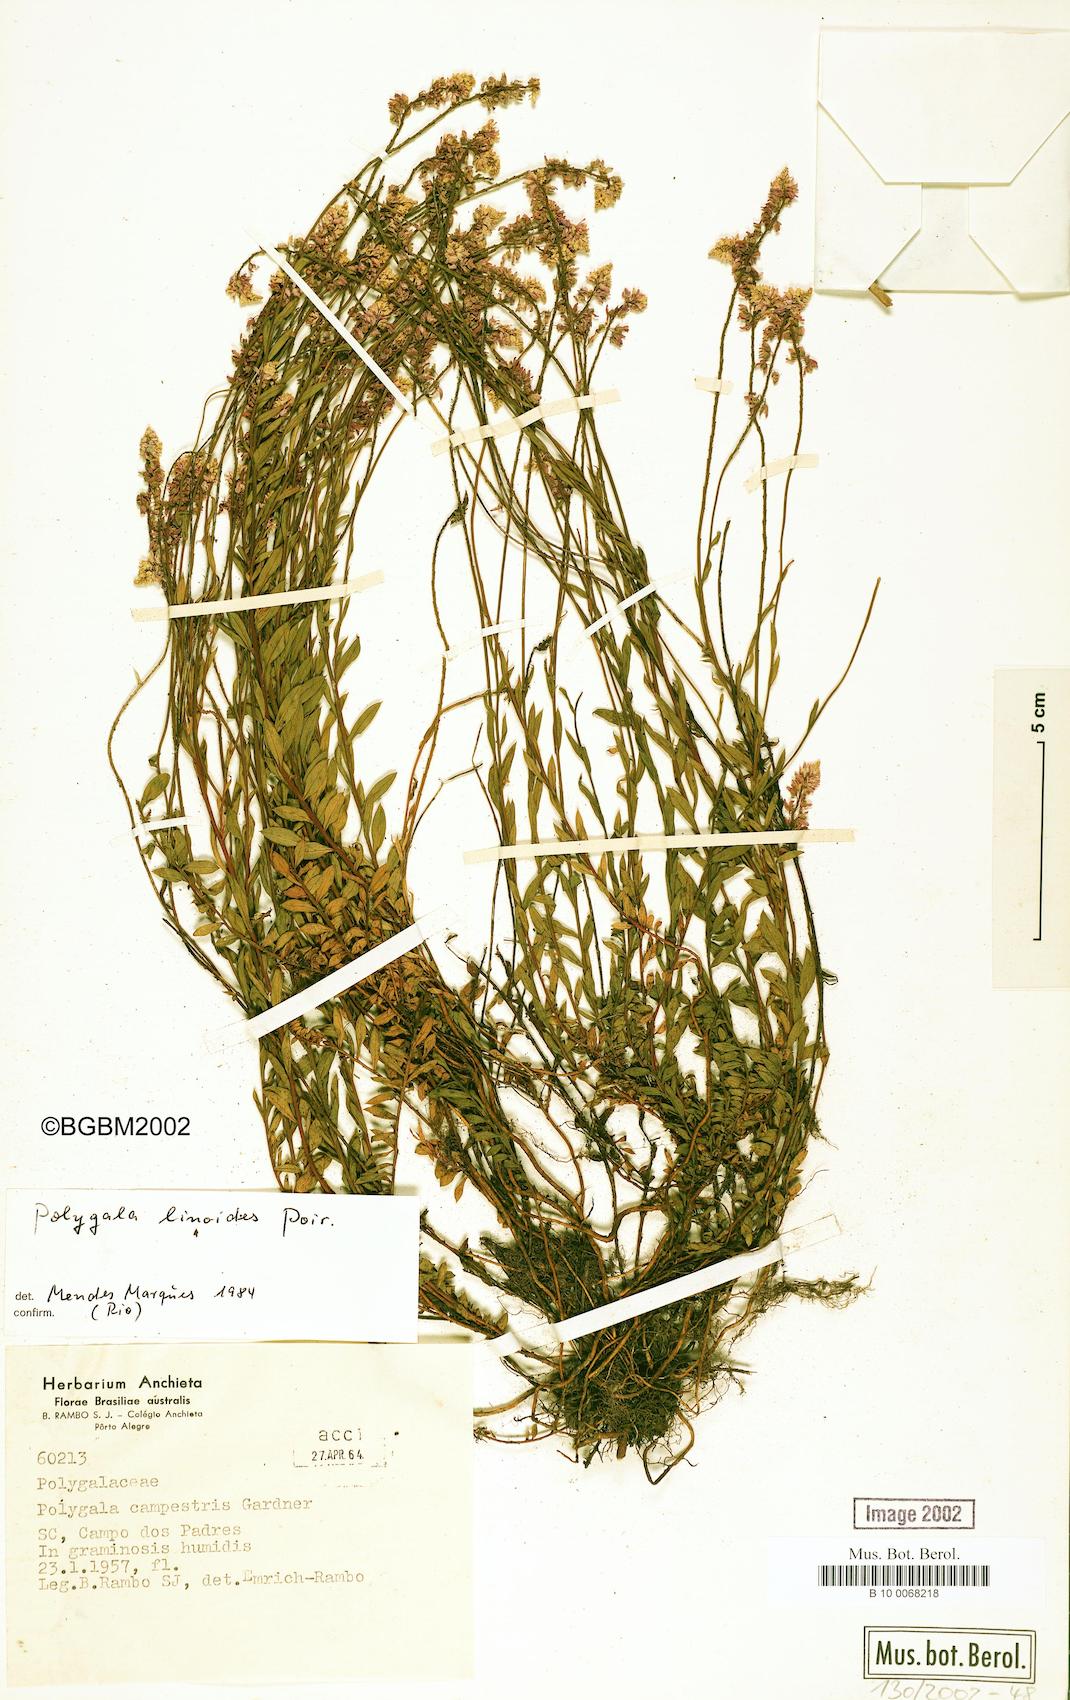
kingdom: Plantae
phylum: Tracheophyta
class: Magnoliopsida
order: Fabales
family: Polygalaceae
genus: Polygala
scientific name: Polygala linoides
